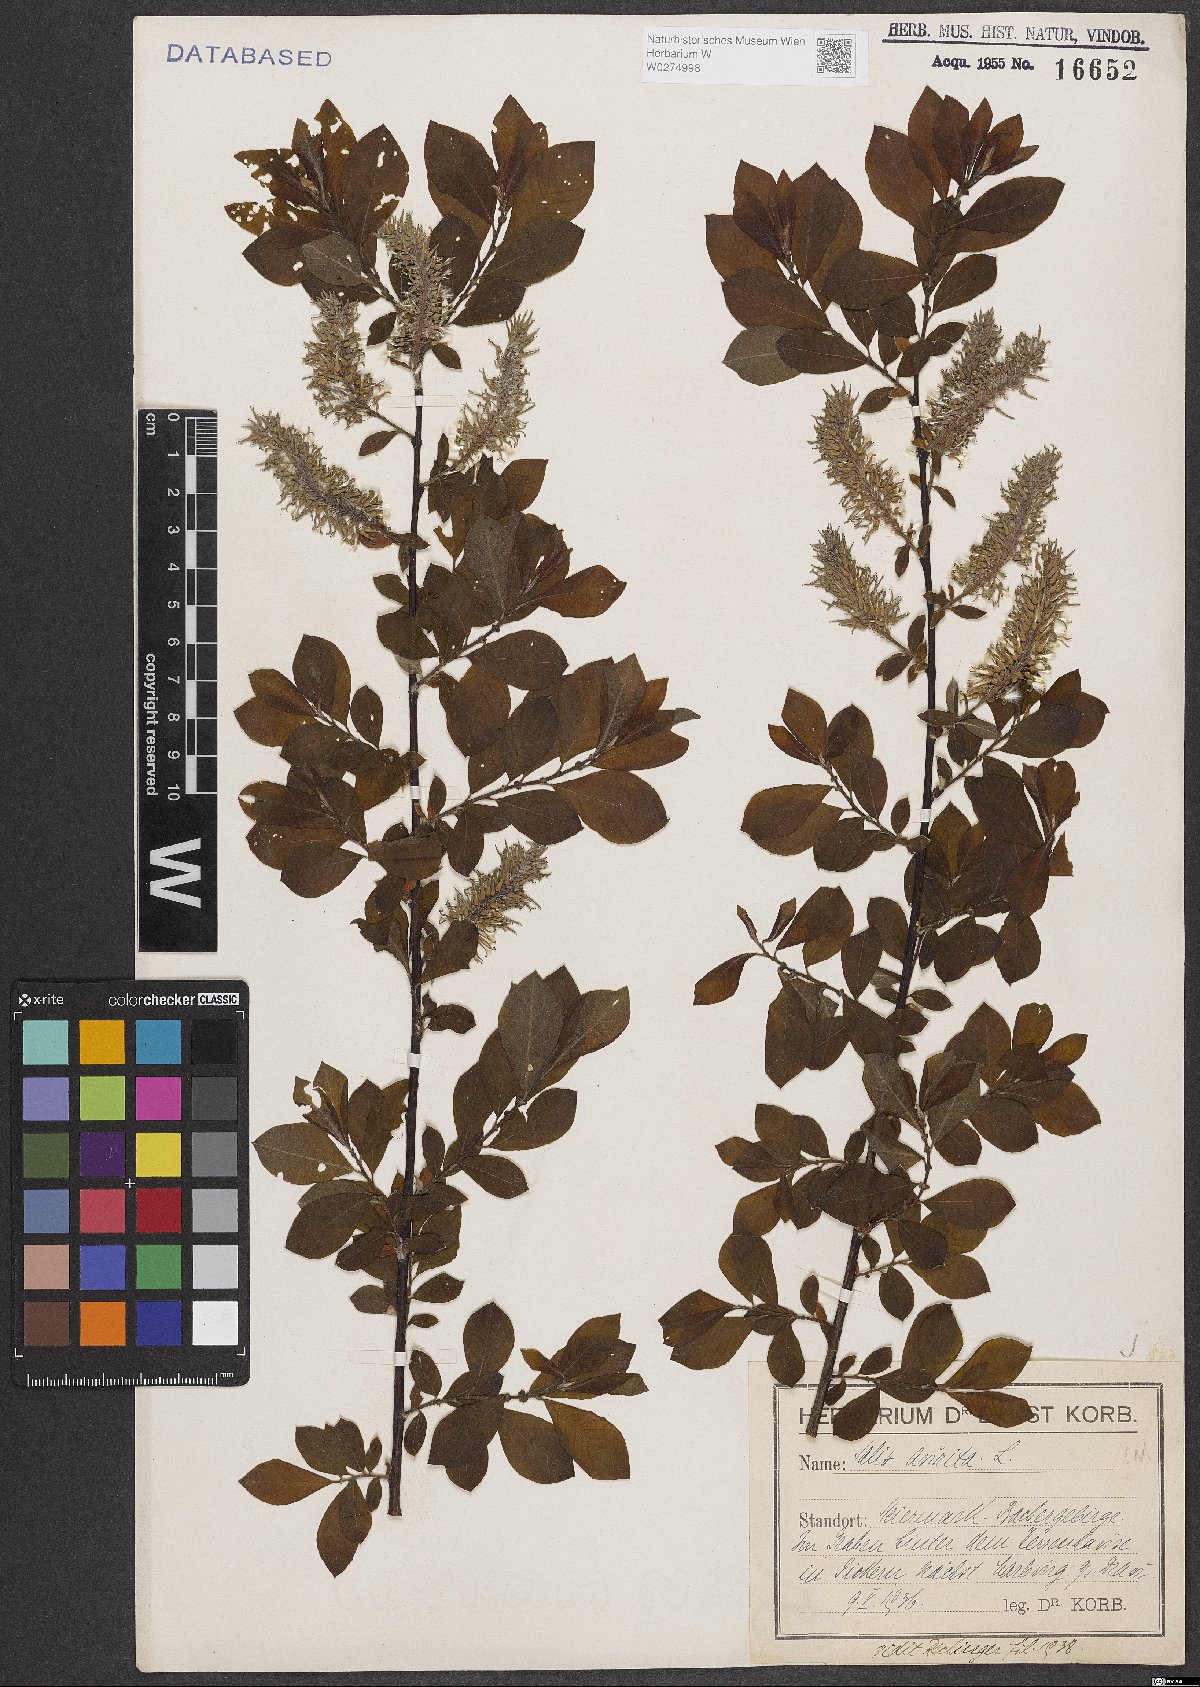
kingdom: Plantae
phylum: Tracheophyta
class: Magnoliopsida
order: Malpighiales
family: Salicaceae
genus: Salix
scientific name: Salix aurita
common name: Eared willow
